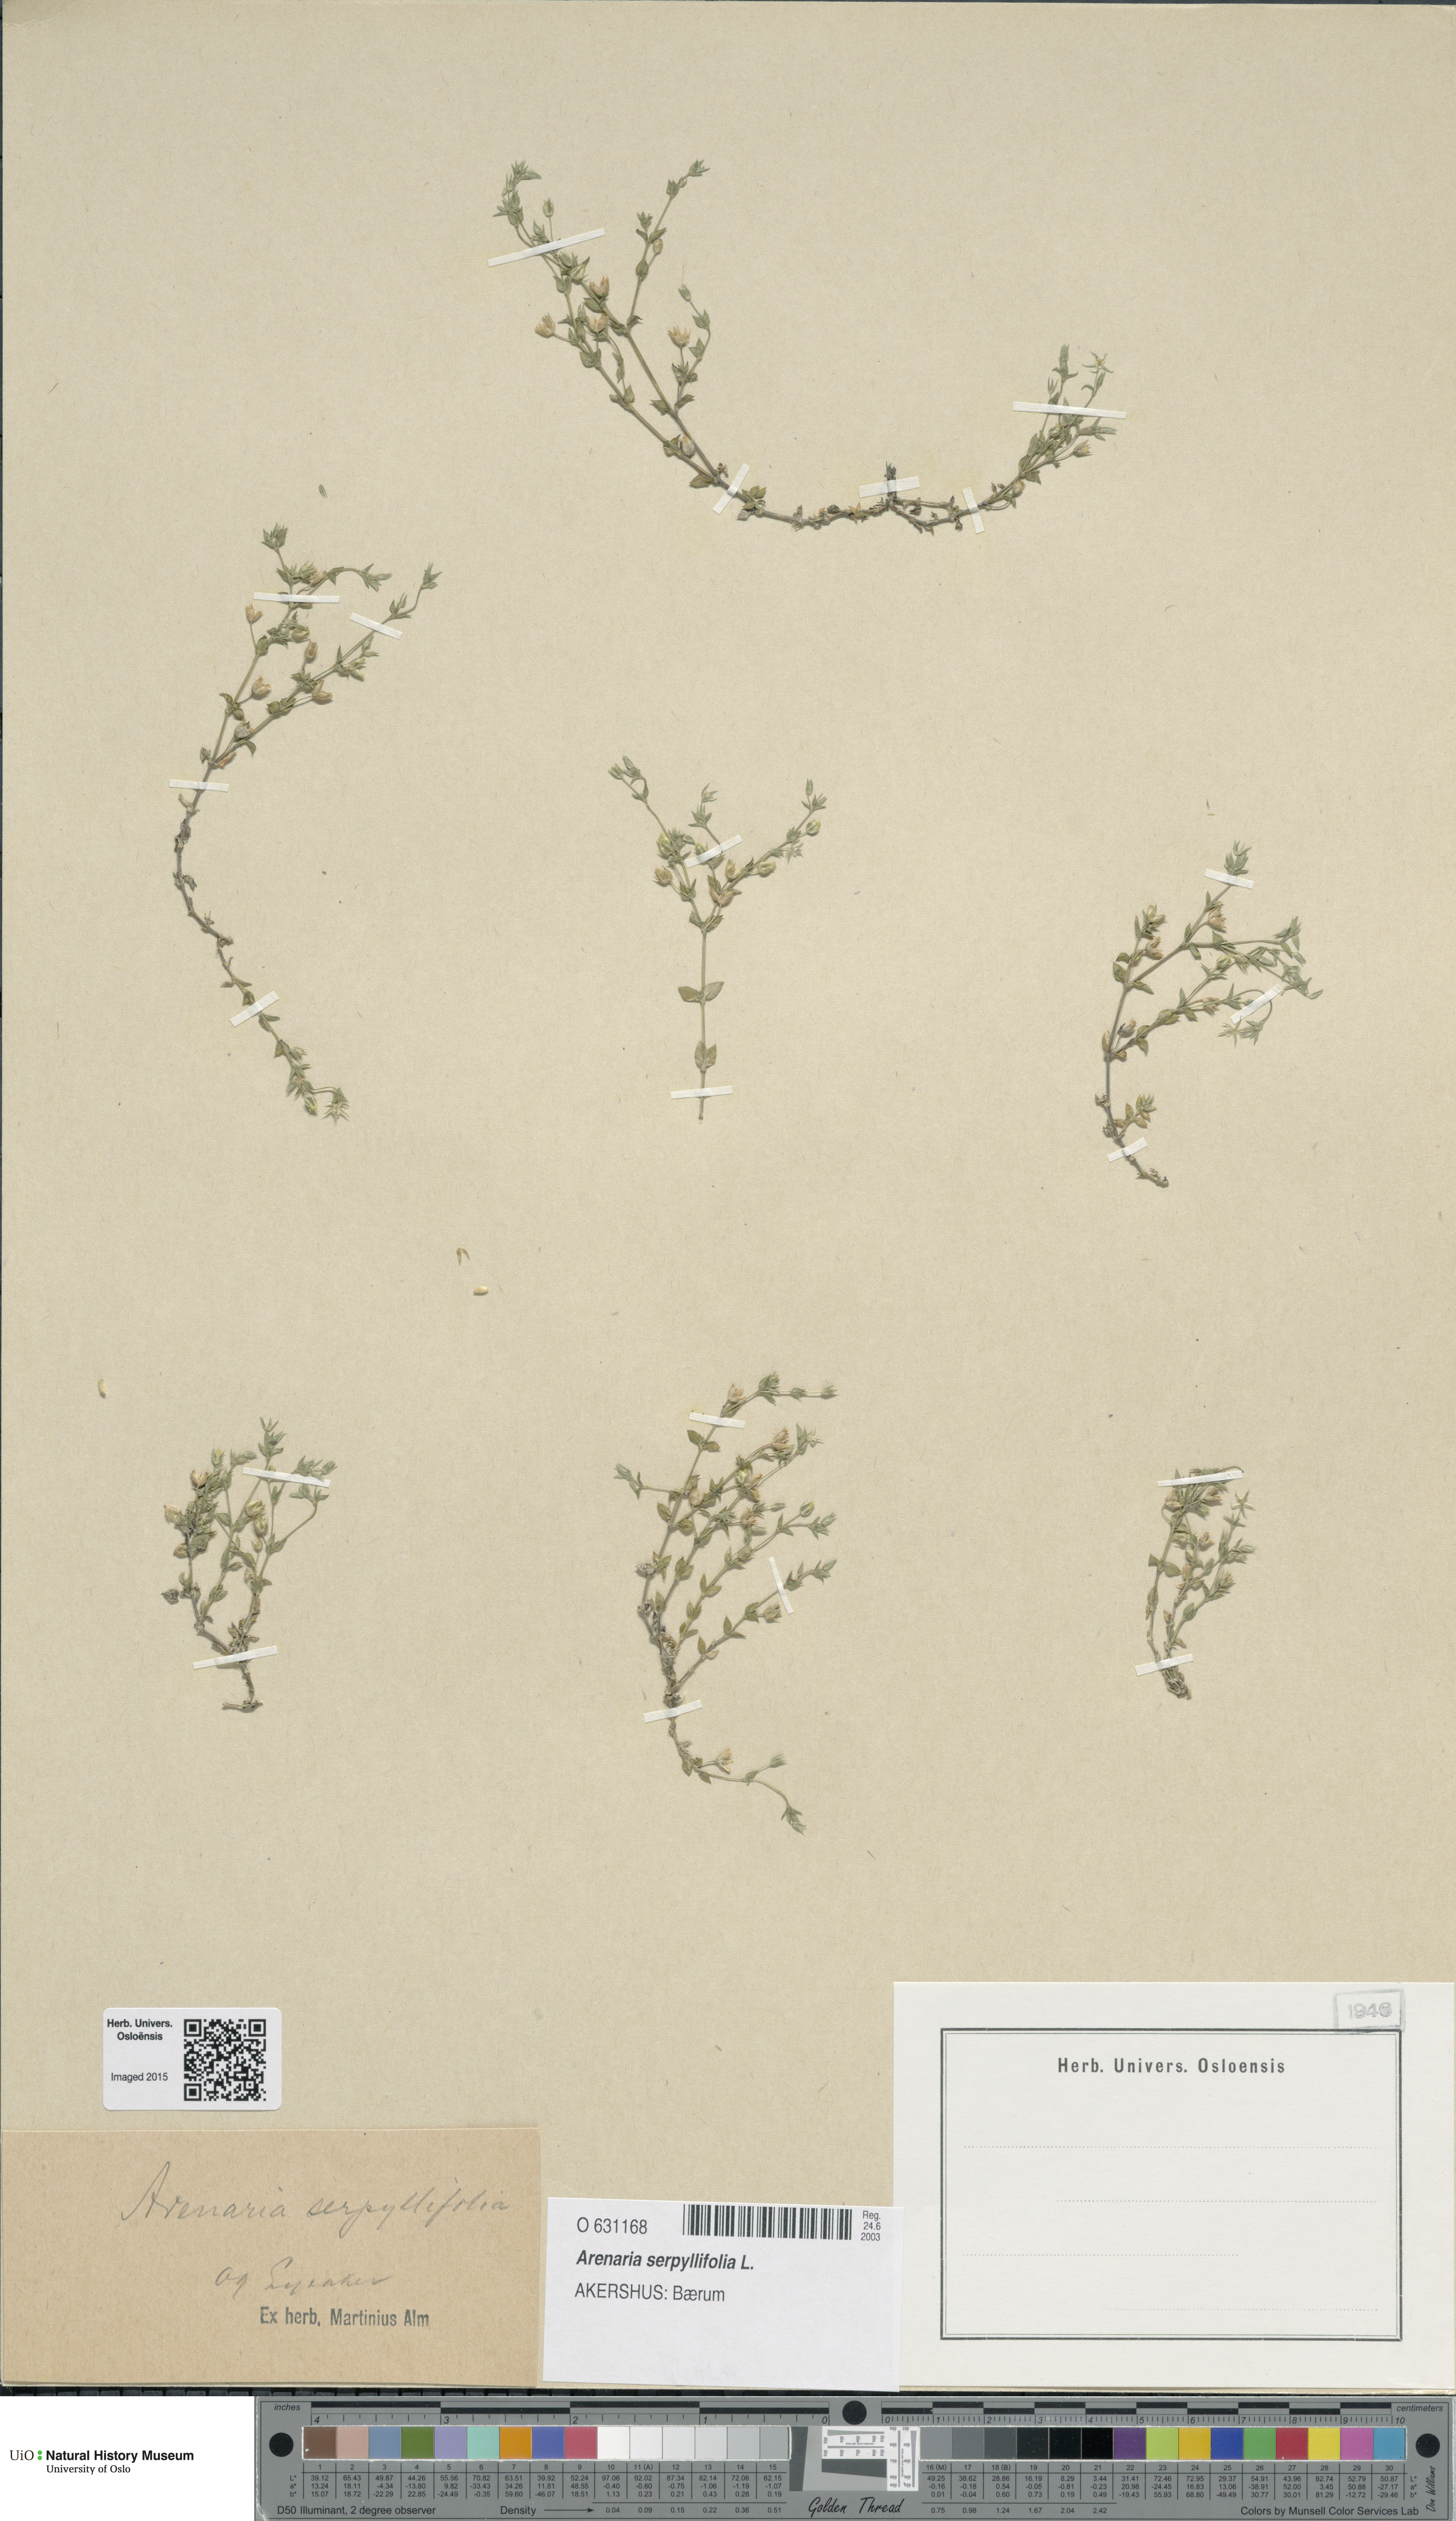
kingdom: Plantae
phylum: Tracheophyta
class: Magnoliopsida
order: Caryophyllales
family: Caryophyllaceae
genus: Arenaria
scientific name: Arenaria serpyllifolia
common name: Thyme-leaved sandwort
